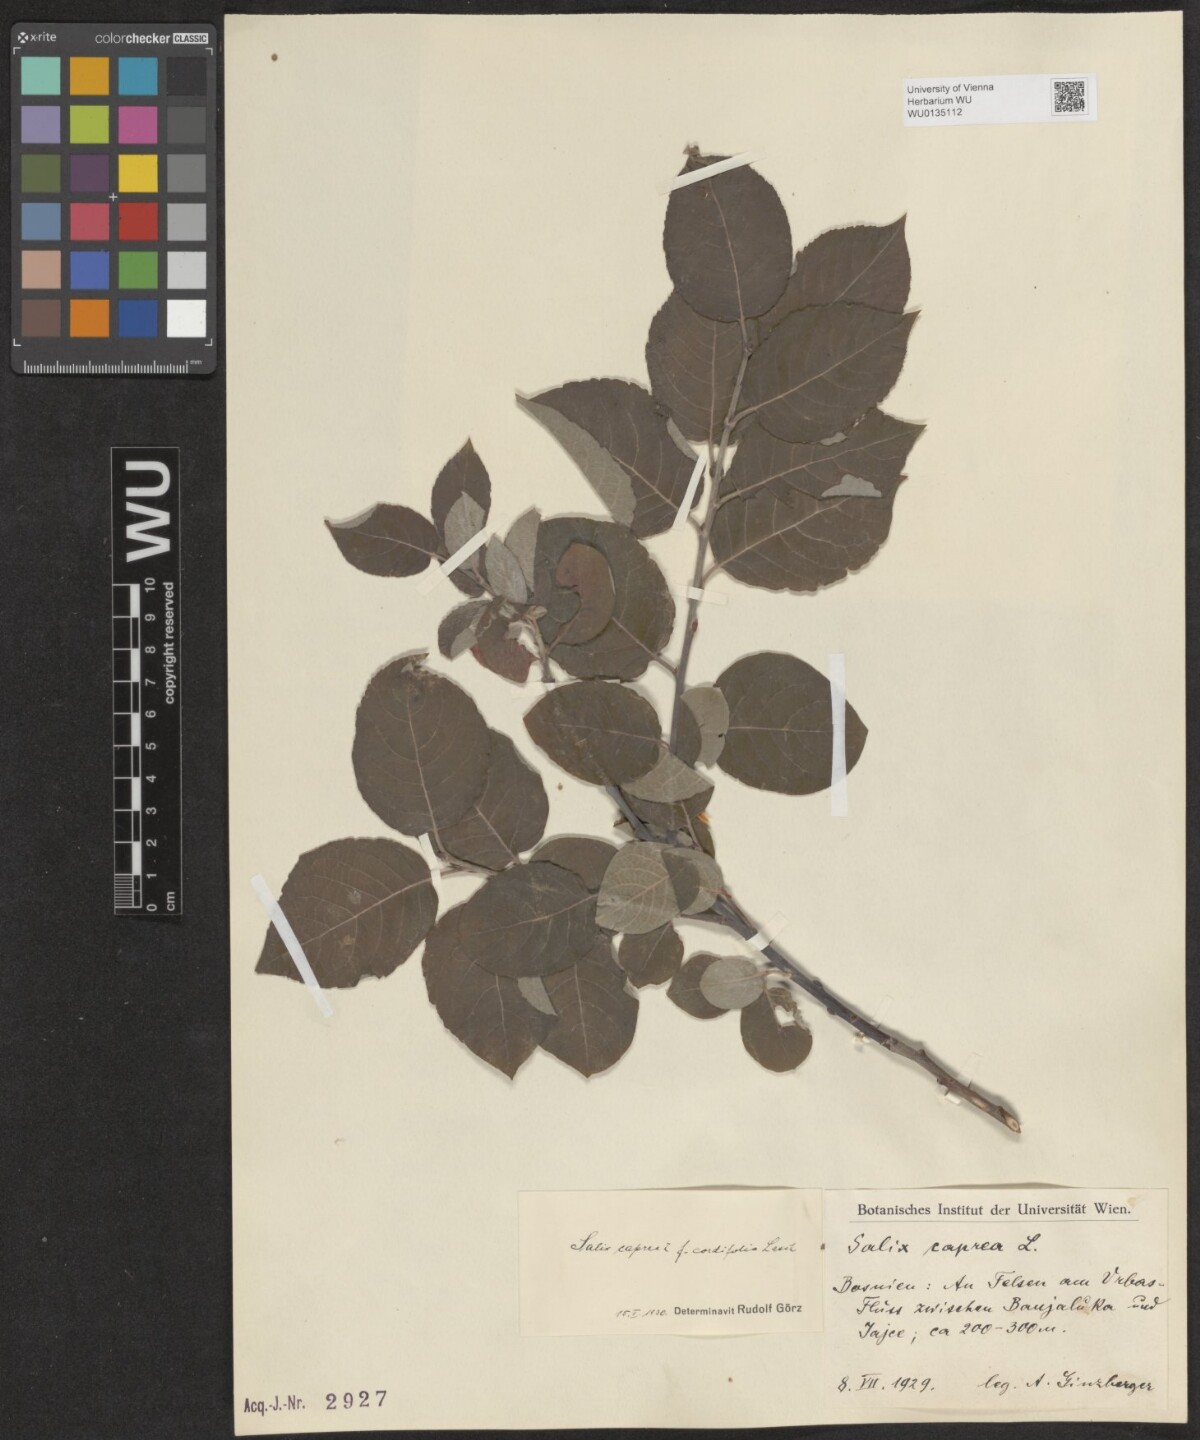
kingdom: Plantae
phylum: Tracheophyta
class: Magnoliopsida
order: Malpighiales
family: Salicaceae
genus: Salix
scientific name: Salix caprea
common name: Goat willow
